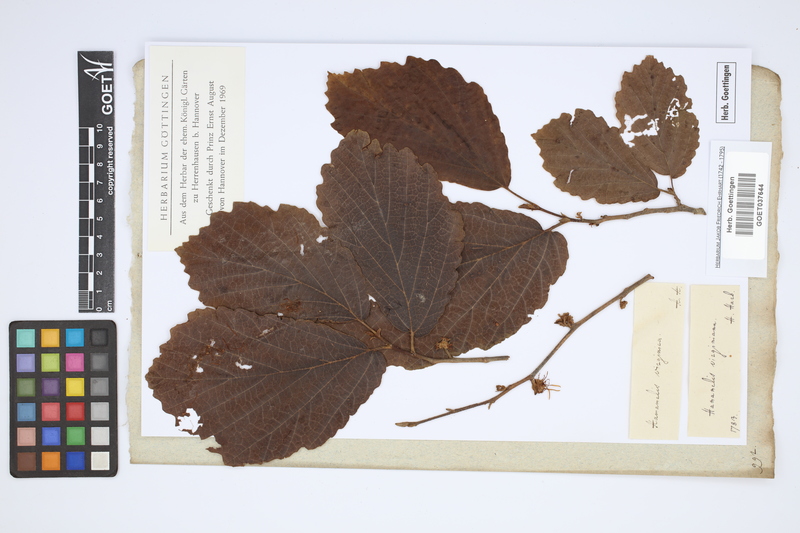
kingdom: Plantae
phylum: Tracheophyta
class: Magnoliopsida
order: Saxifragales
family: Hamamelidaceae
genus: Hamamelis
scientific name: Hamamelis virginiana
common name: Witch-hazel
